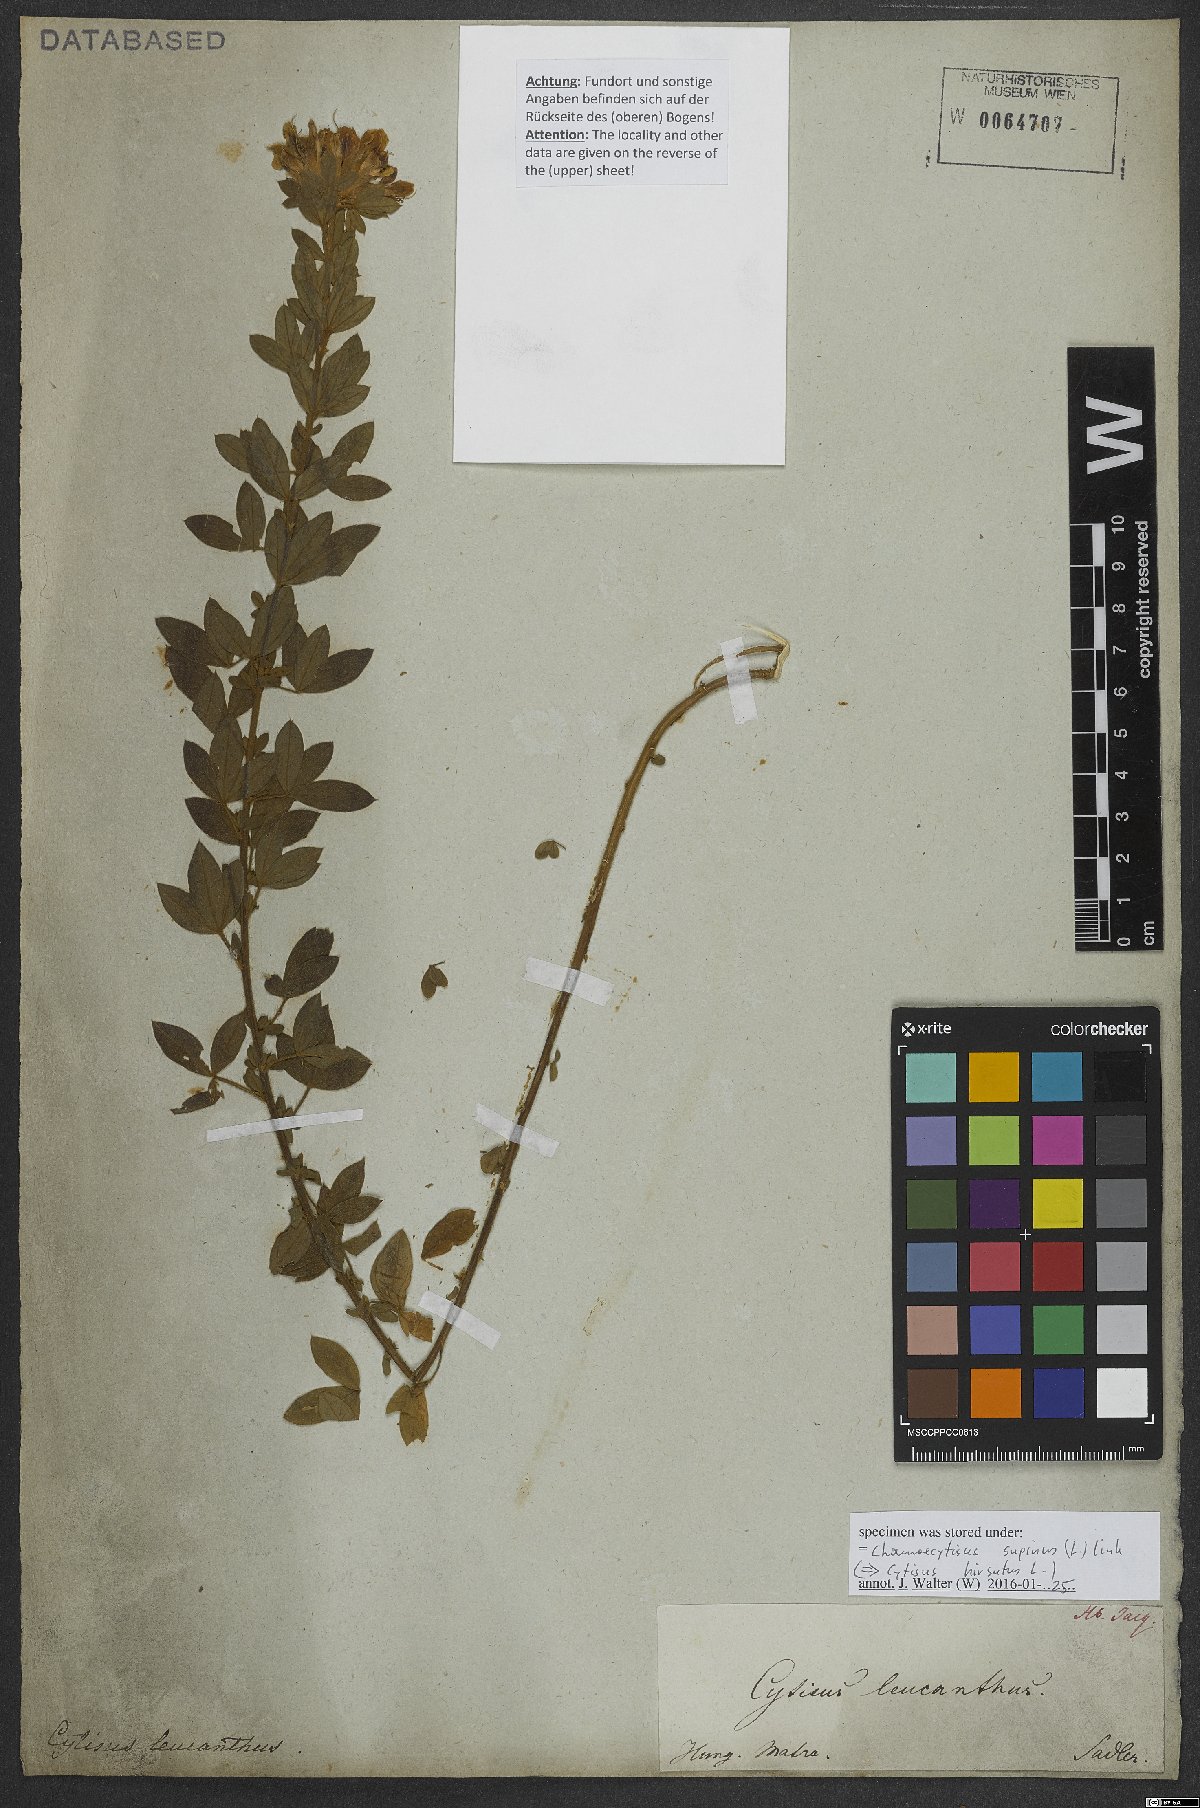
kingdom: Plantae
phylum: Tracheophyta
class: Magnoliopsida
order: Fabales
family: Fabaceae
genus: Chamaecytisus
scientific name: Chamaecytisus supinus
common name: Clustered broom
